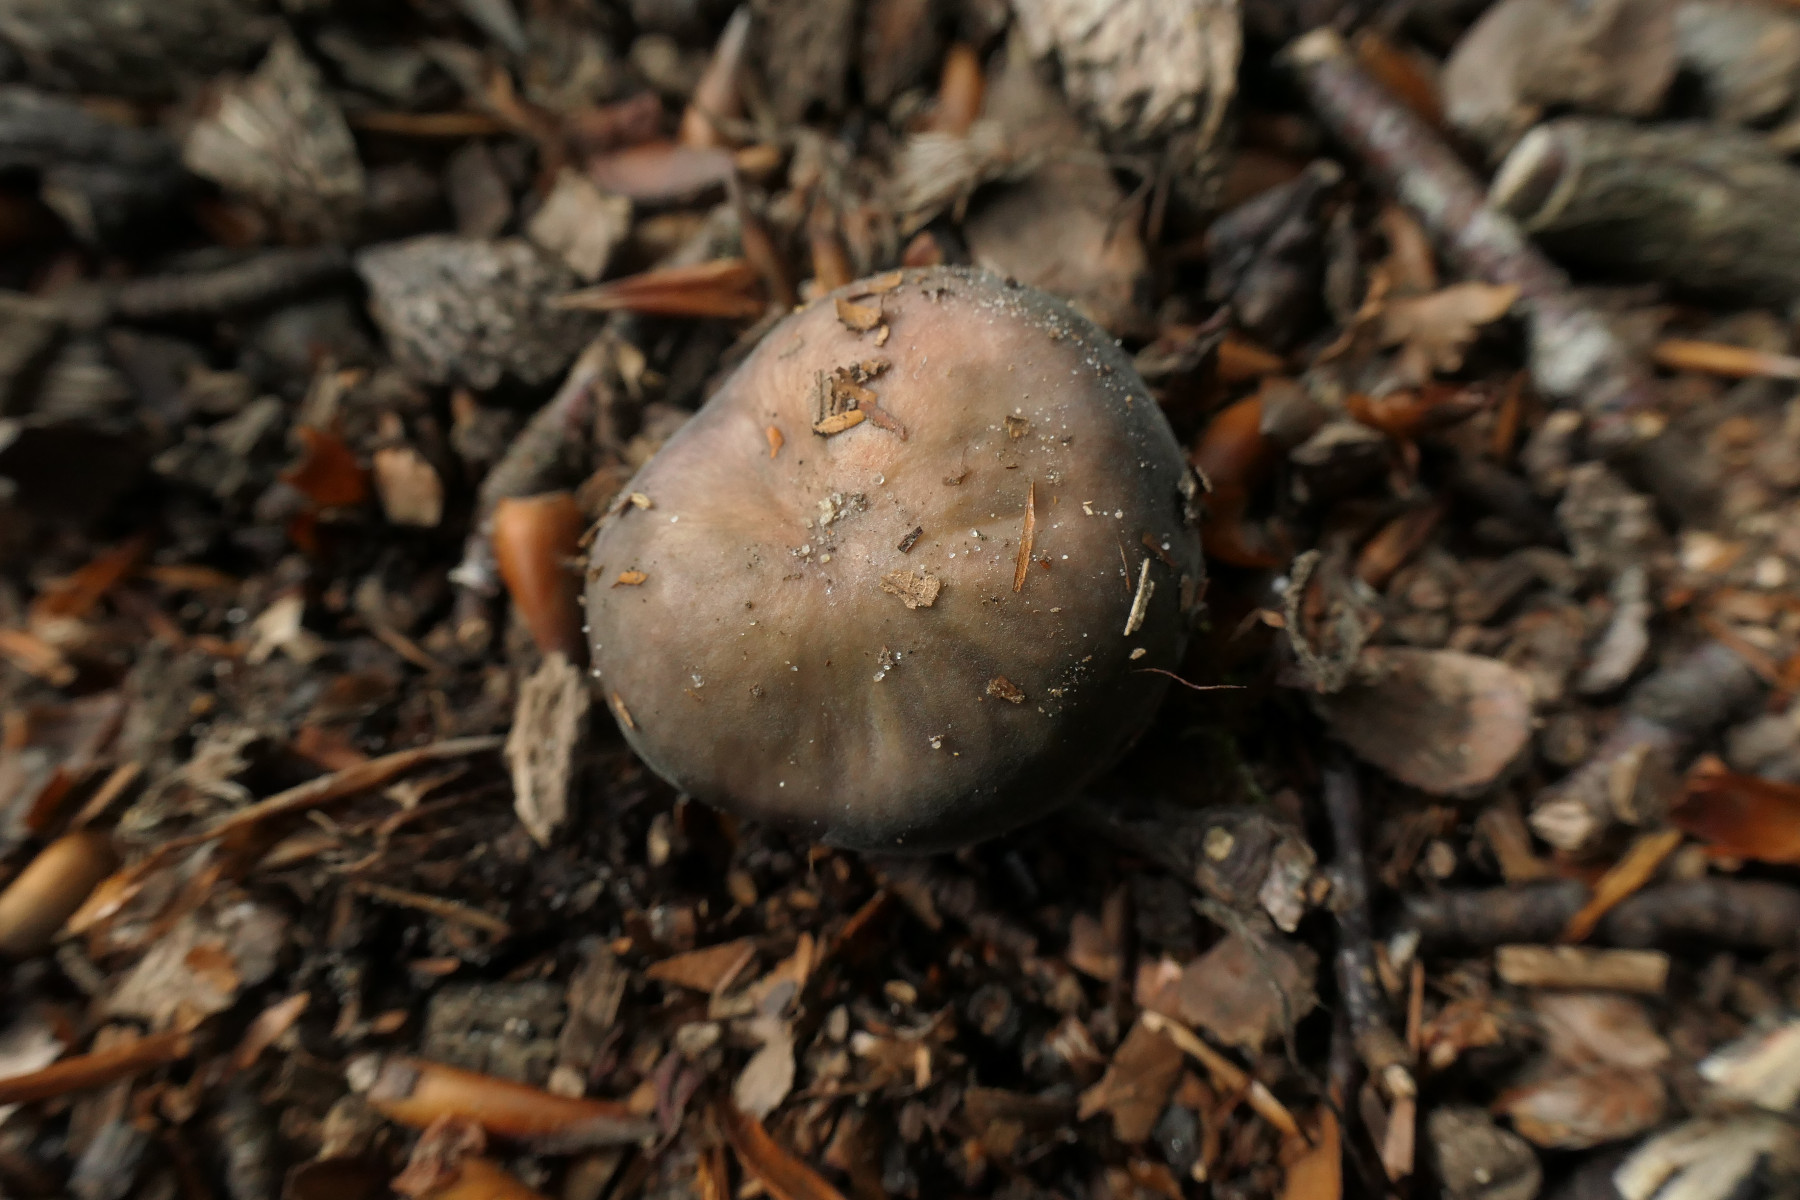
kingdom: Fungi
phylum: Basidiomycota
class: Agaricomycetes
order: Russulales
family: Russulaceae
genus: Russula
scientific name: Russula parazurea
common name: blågrå skørhat
